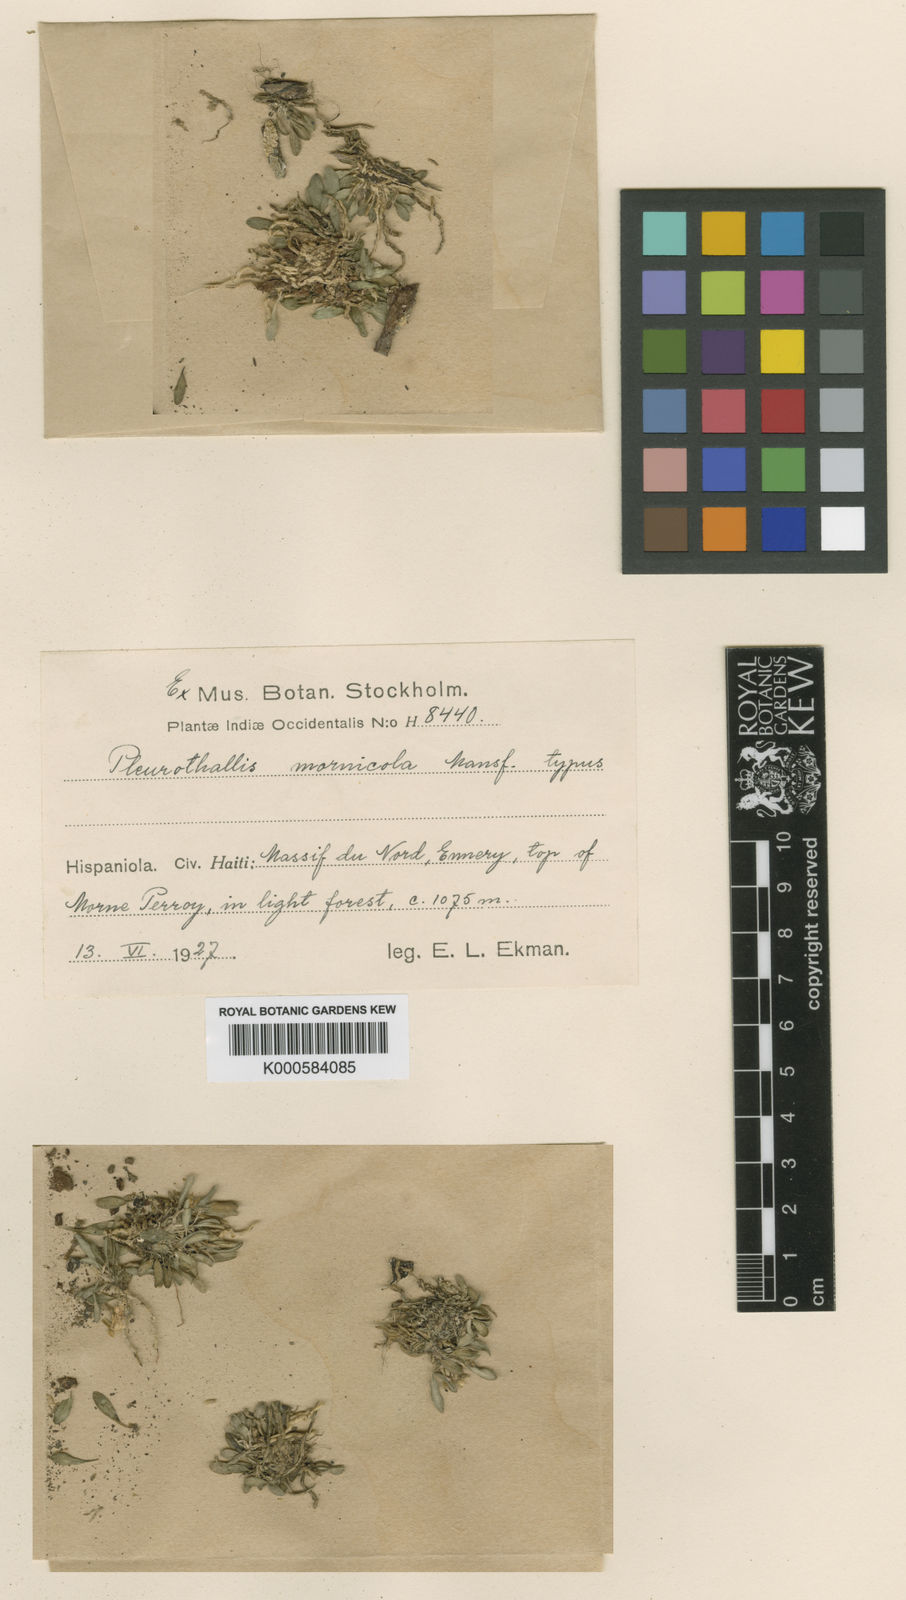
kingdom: Plantae
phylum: Tracheophyta
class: Liliopsida
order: Asparagales
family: Orchidaceae
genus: Specklinia
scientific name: Specklinia mornicola
